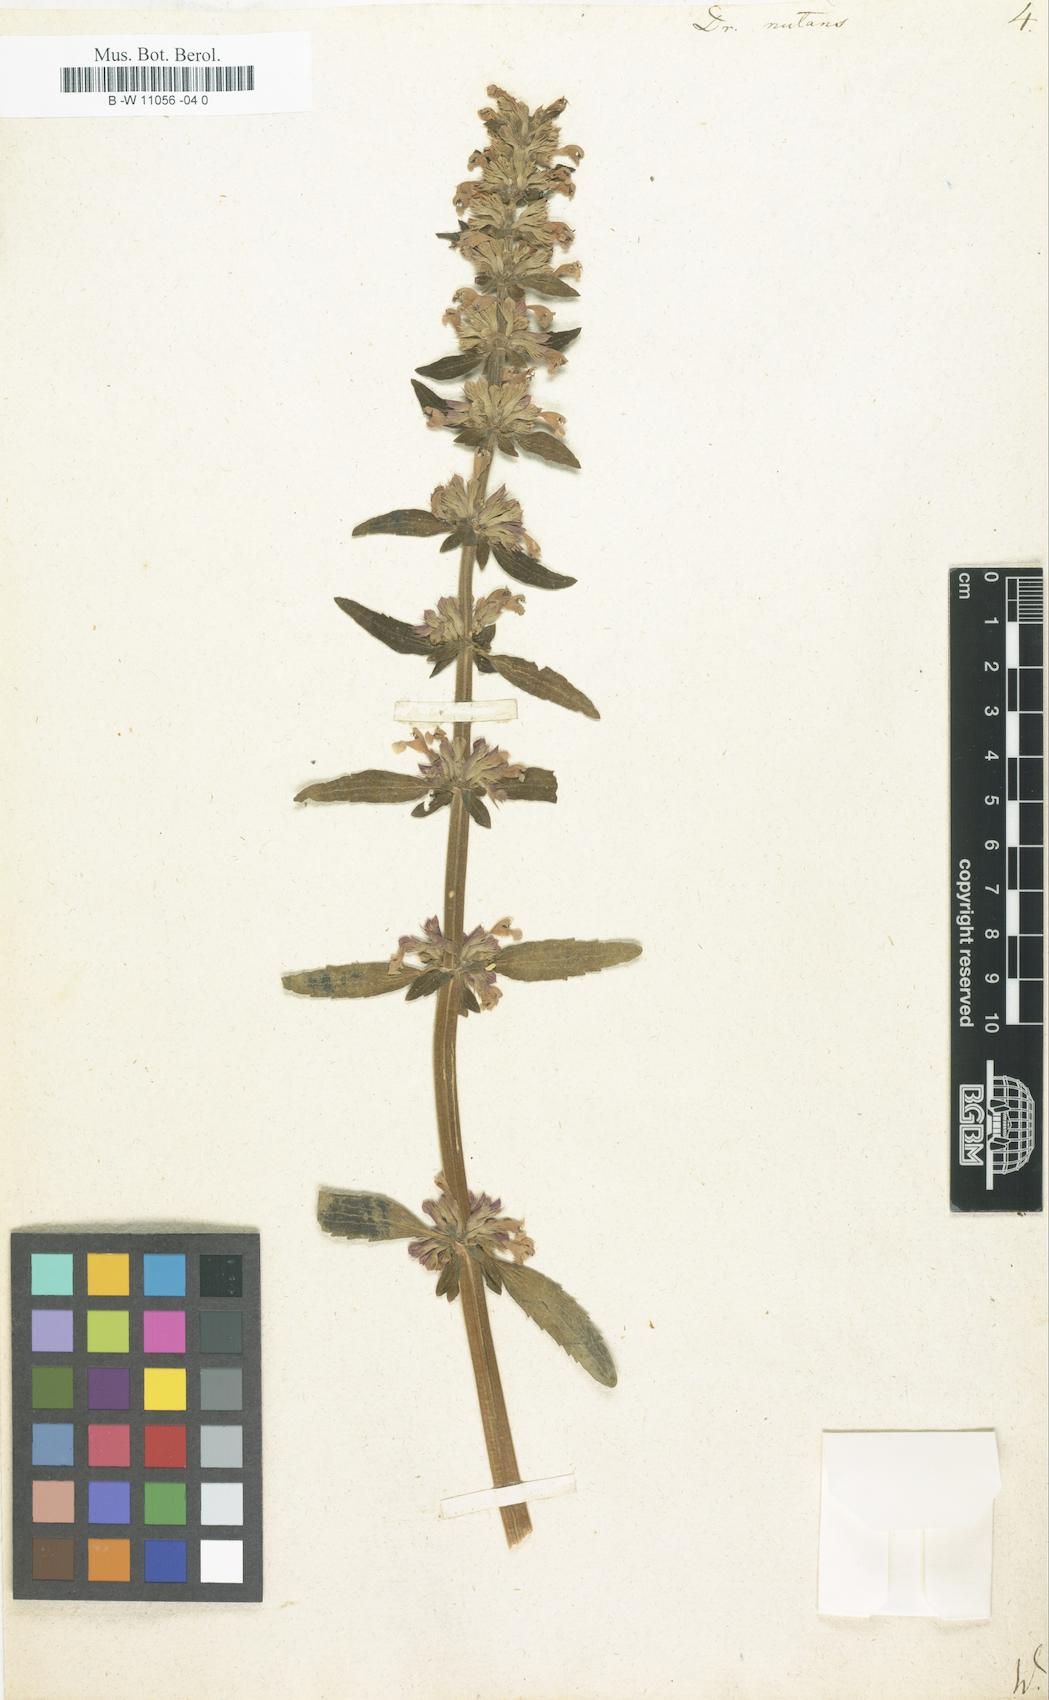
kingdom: Plantae
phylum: Tracheophyta
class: Magnoliopsida
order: Lamiales
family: Lamiaceae
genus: Dracocephalum
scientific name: Dracocephalum nutans
